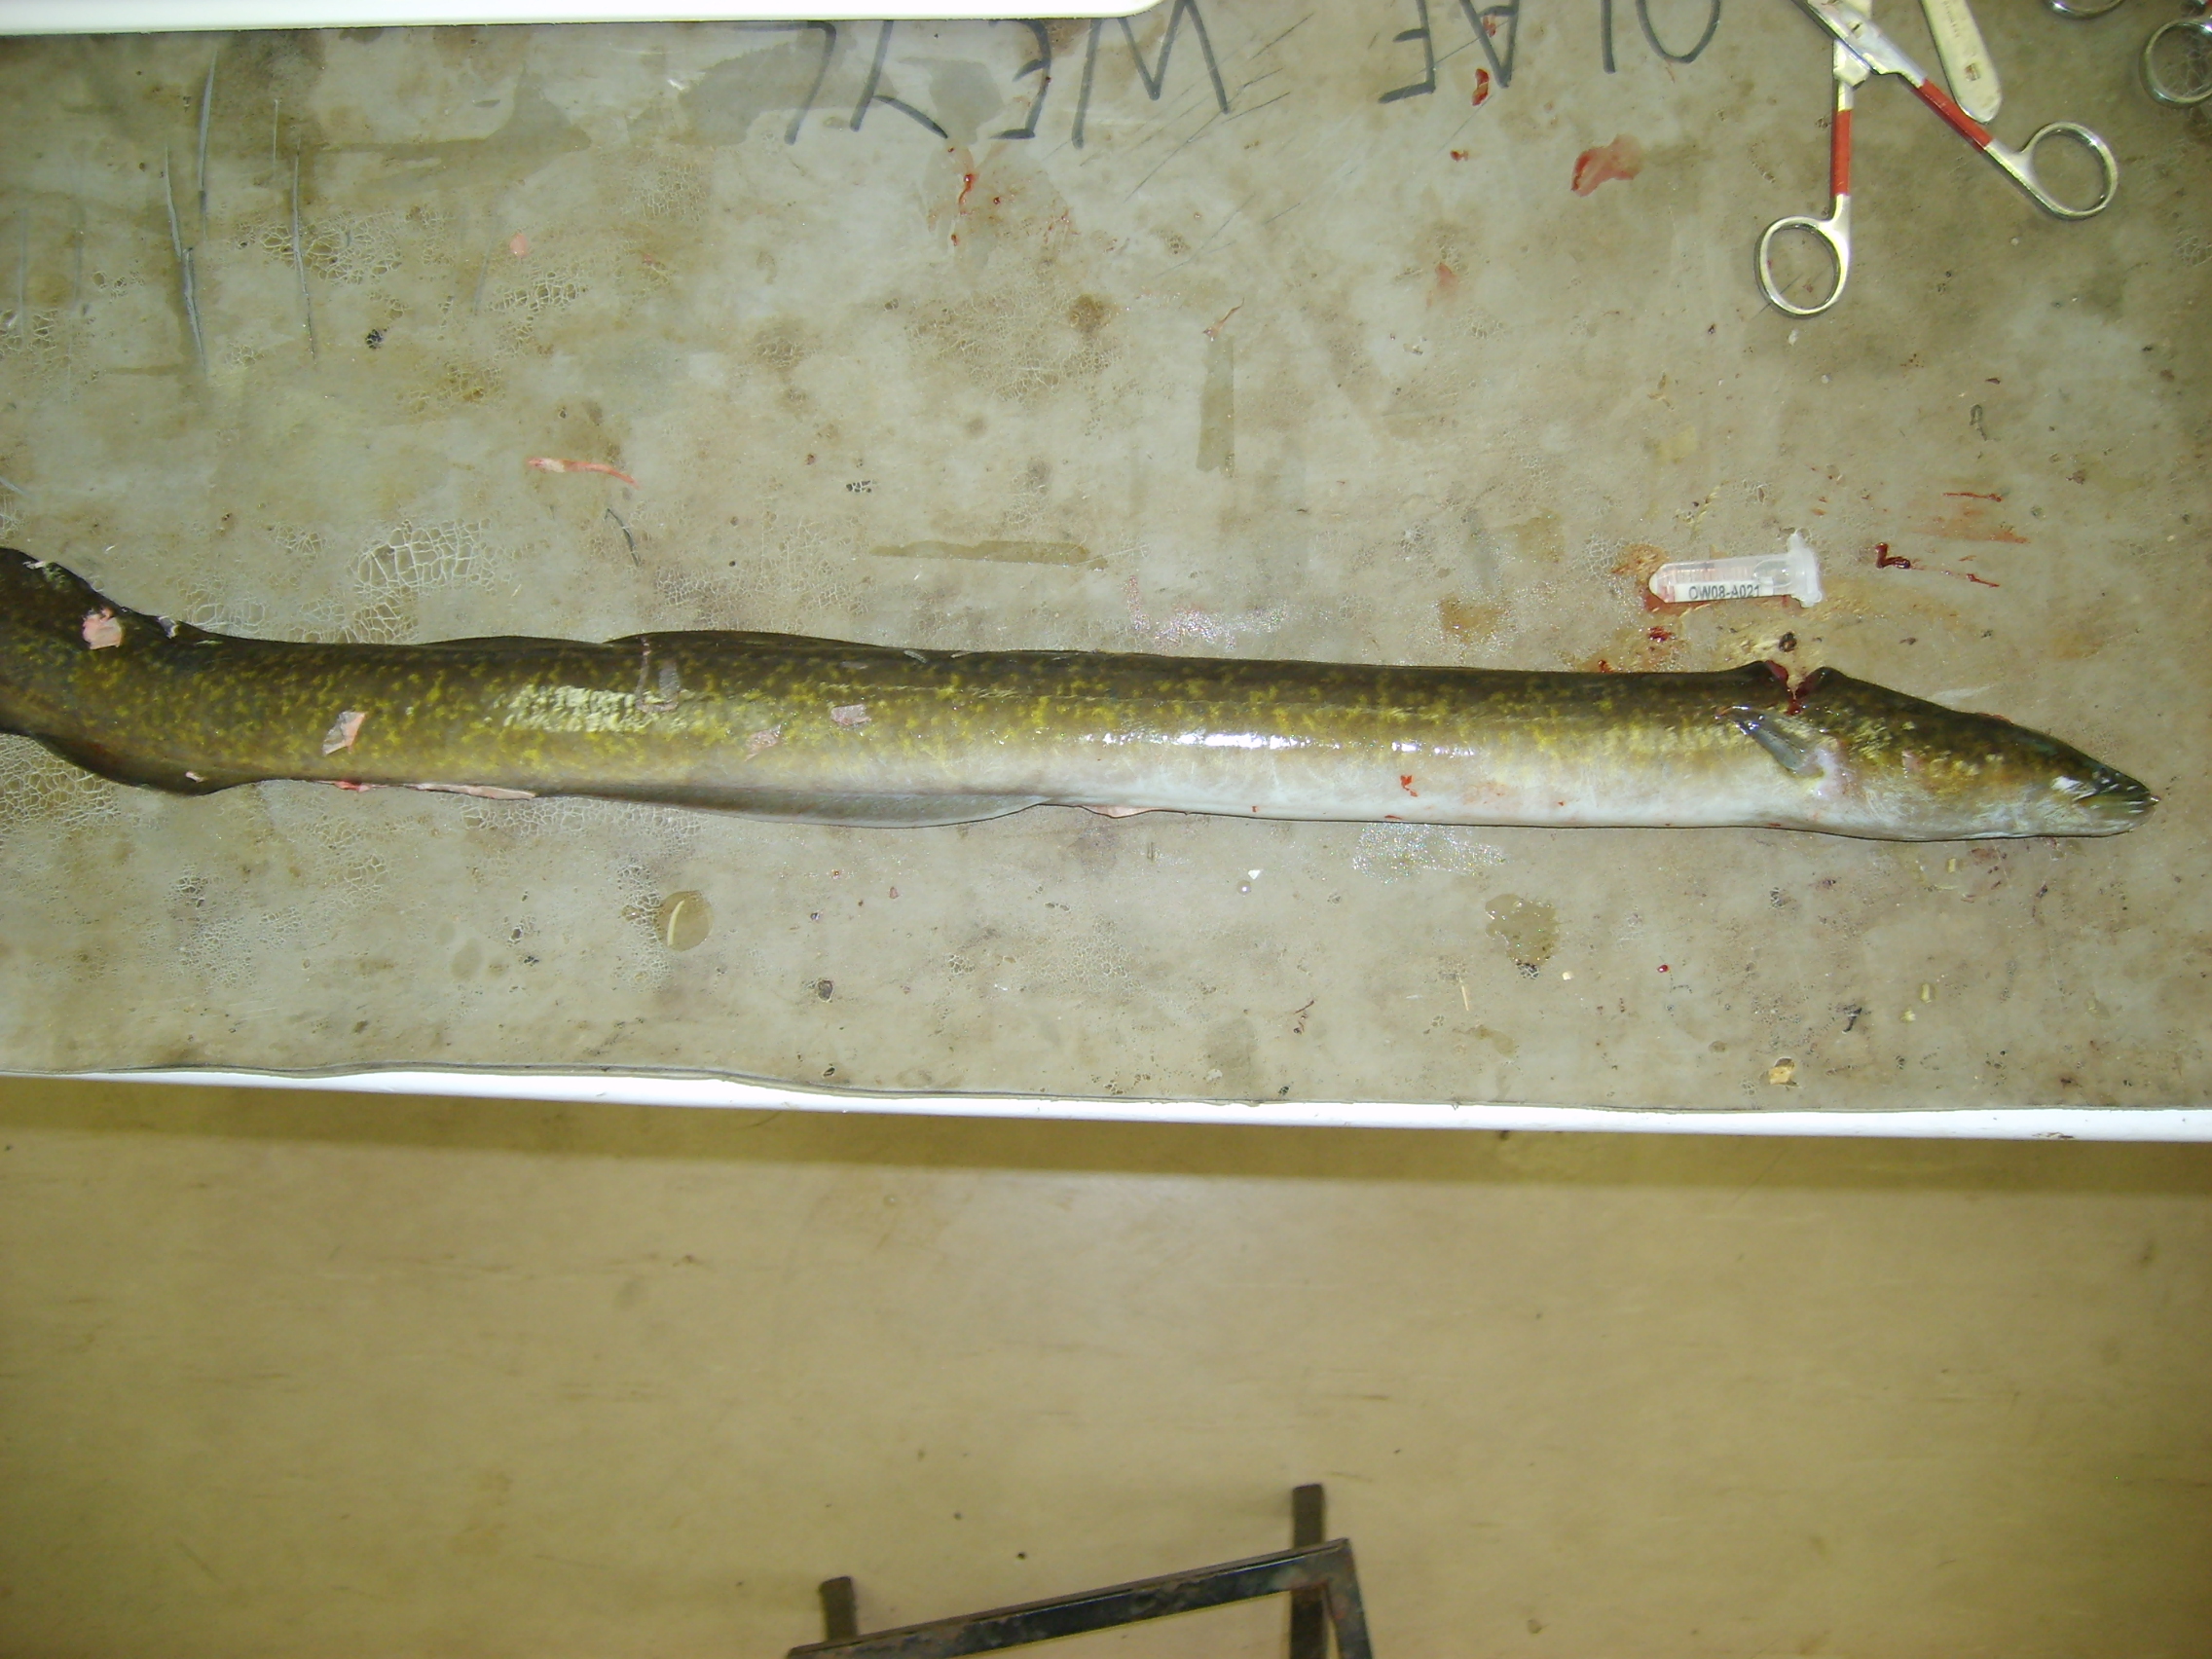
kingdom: Animalia
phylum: Chordata
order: Anguilliformes
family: Anguillidae
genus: Anguilla
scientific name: Anguilla marmorata
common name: Giant mottled eel
